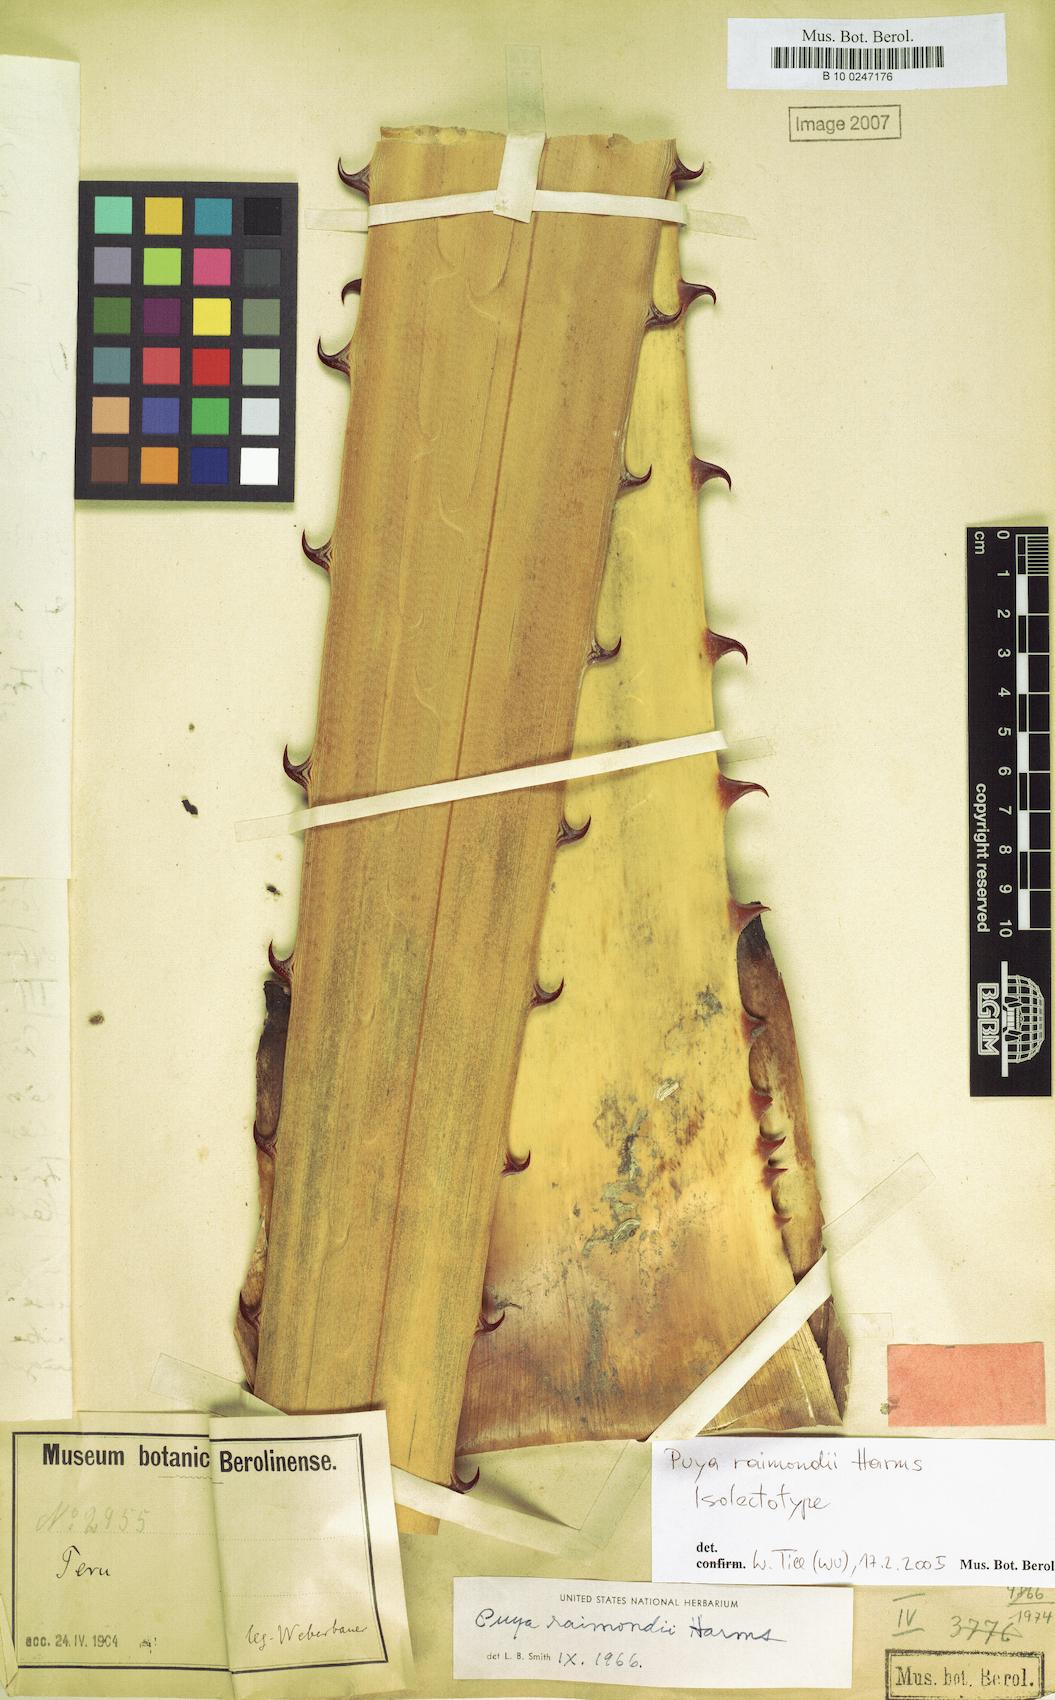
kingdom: Plantae
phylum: Tracheophyta
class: Liliopsida
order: Poales
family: Bromeliaceae
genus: Puya
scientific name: Puya raimondii
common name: Queen of the andes
